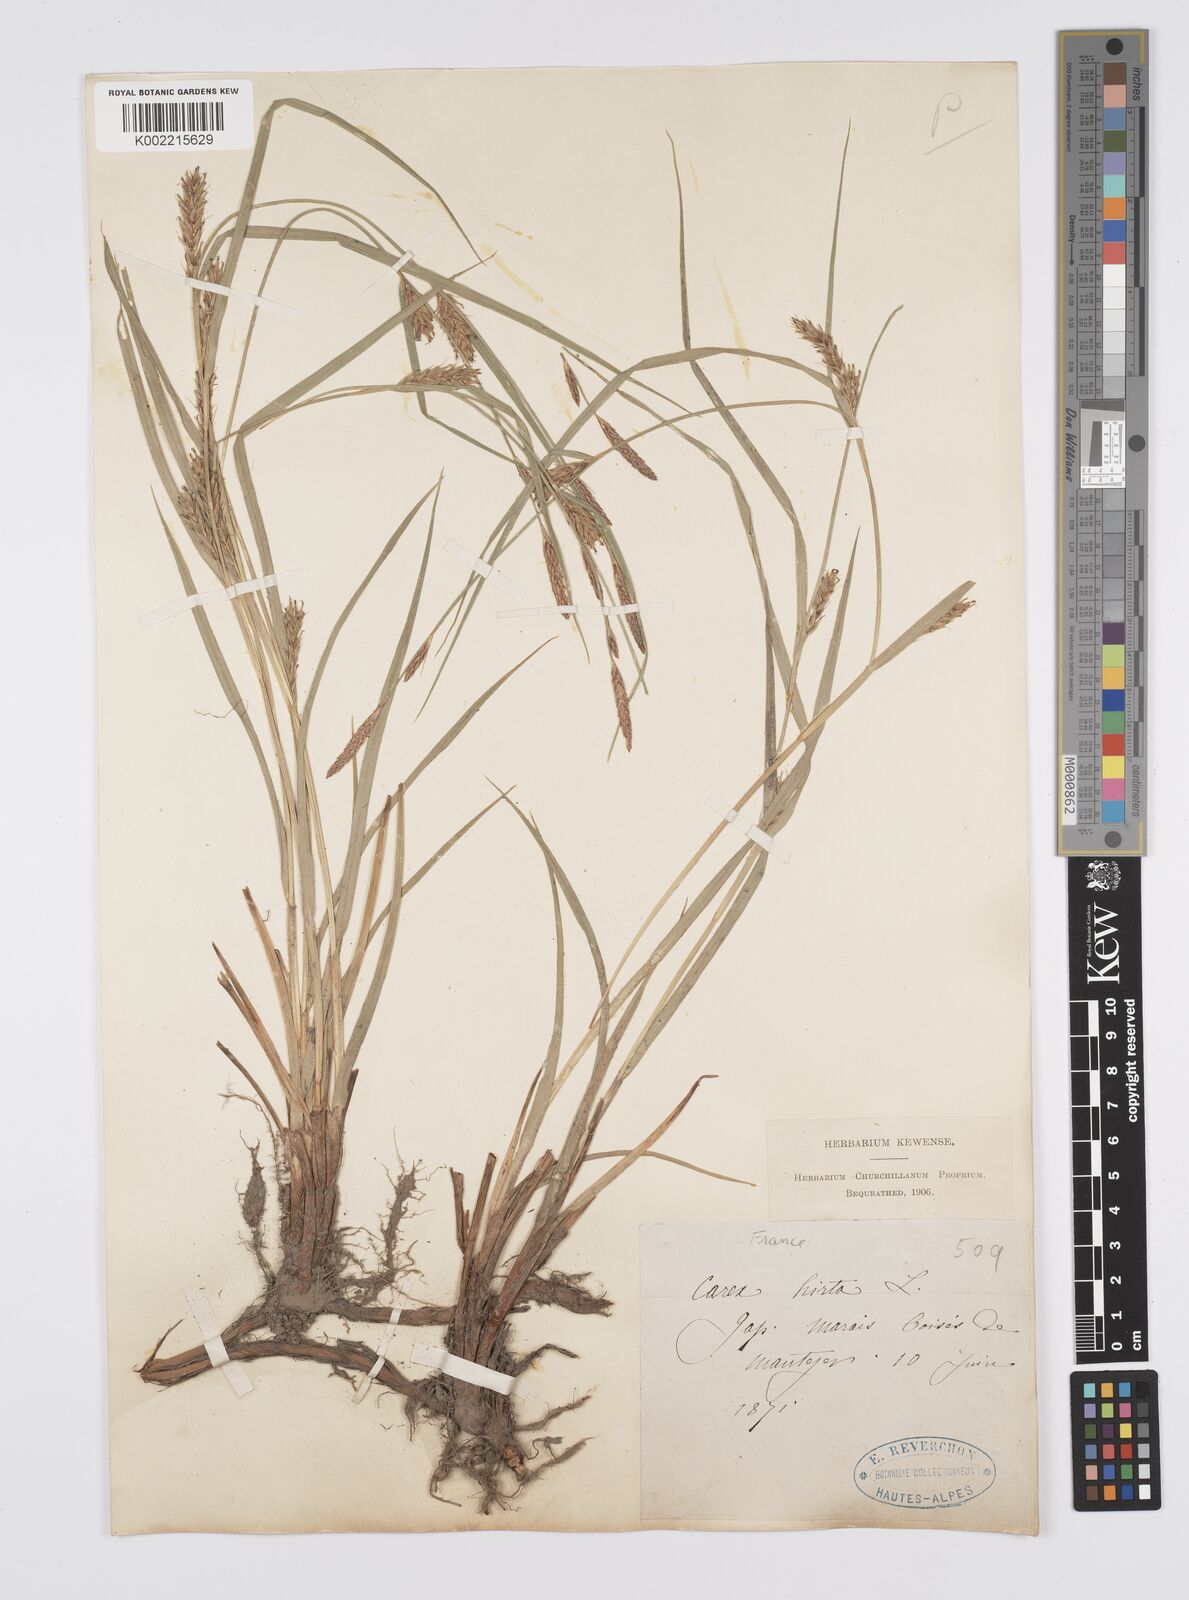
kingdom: Plantae
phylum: Tracheophyta
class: Liliopsida
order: Poales
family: Cyperaceae
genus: Carex
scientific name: Carex hirta
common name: Hairy sedge
